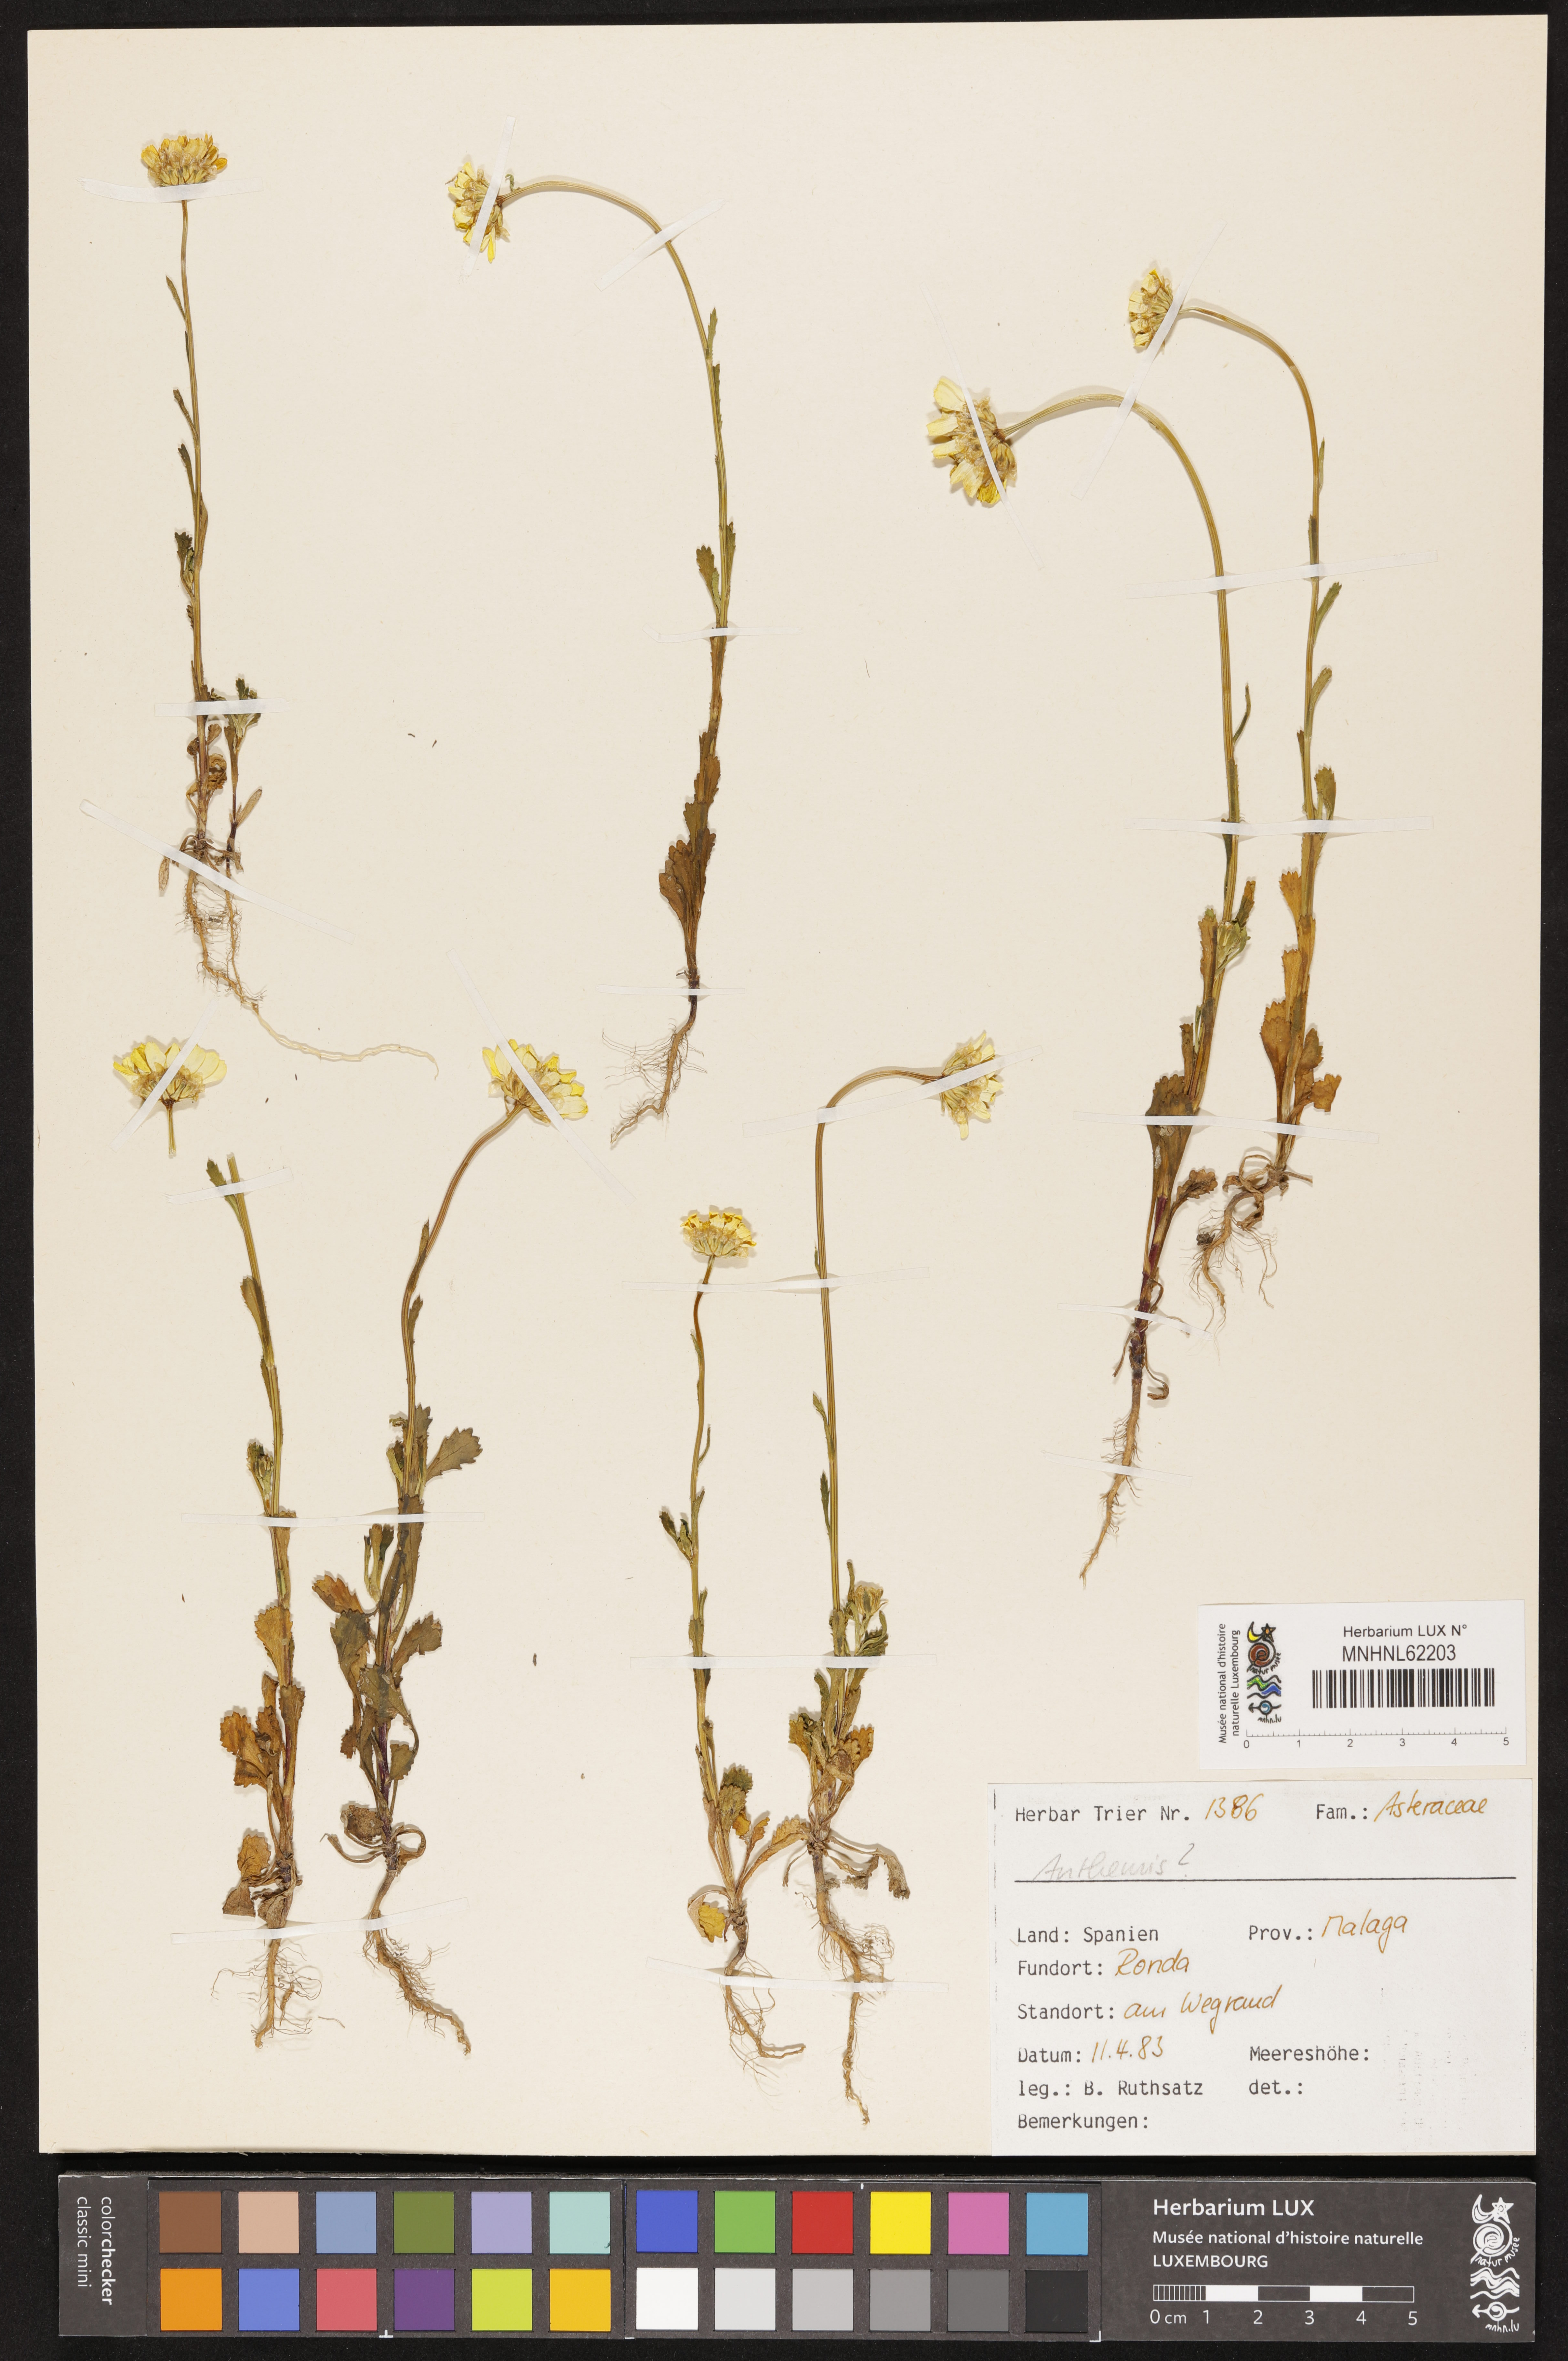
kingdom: Plantae
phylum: Tracheophyta
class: Magnoliopsida
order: Asterales
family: Asteraceae
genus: Anthemis
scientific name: Anthemis
